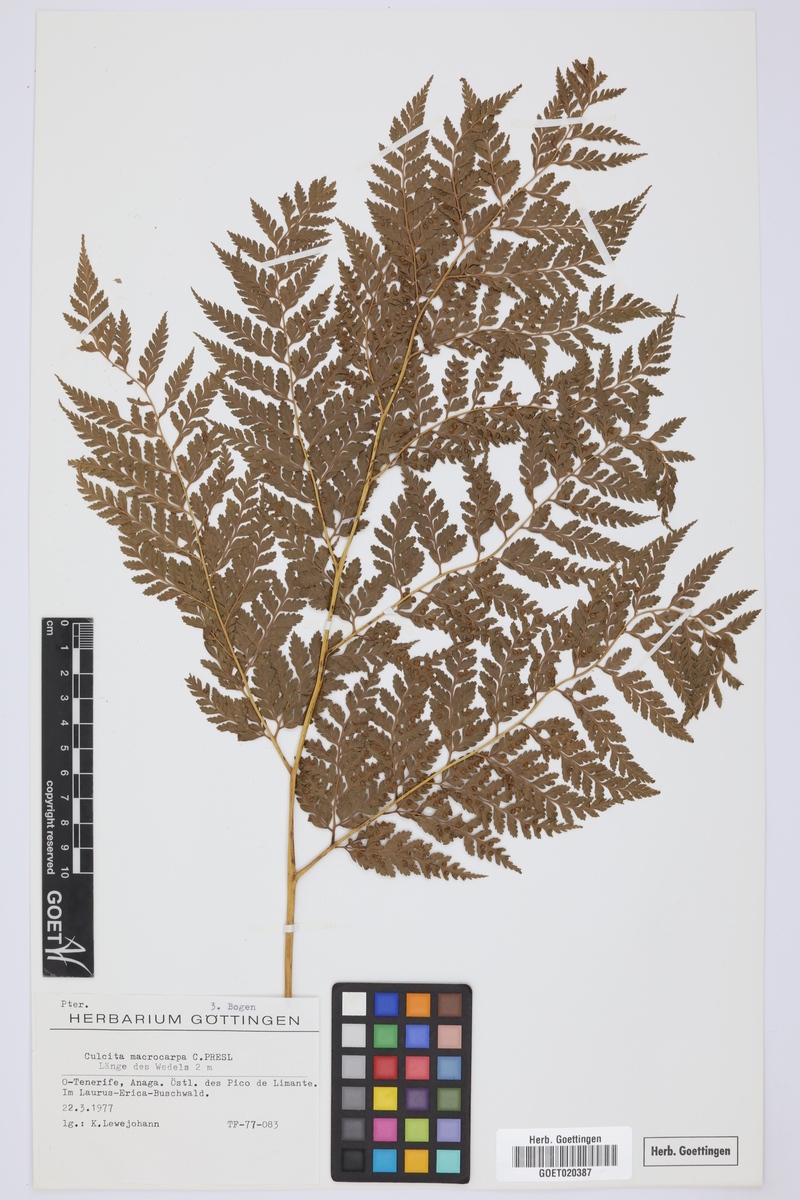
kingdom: Plantae
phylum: Tracheophyta
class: Polypodiopsida
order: Cyatheales
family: Culcitaceae
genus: Culcita
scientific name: Culcita macrocarpa
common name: Woolly tree fern
